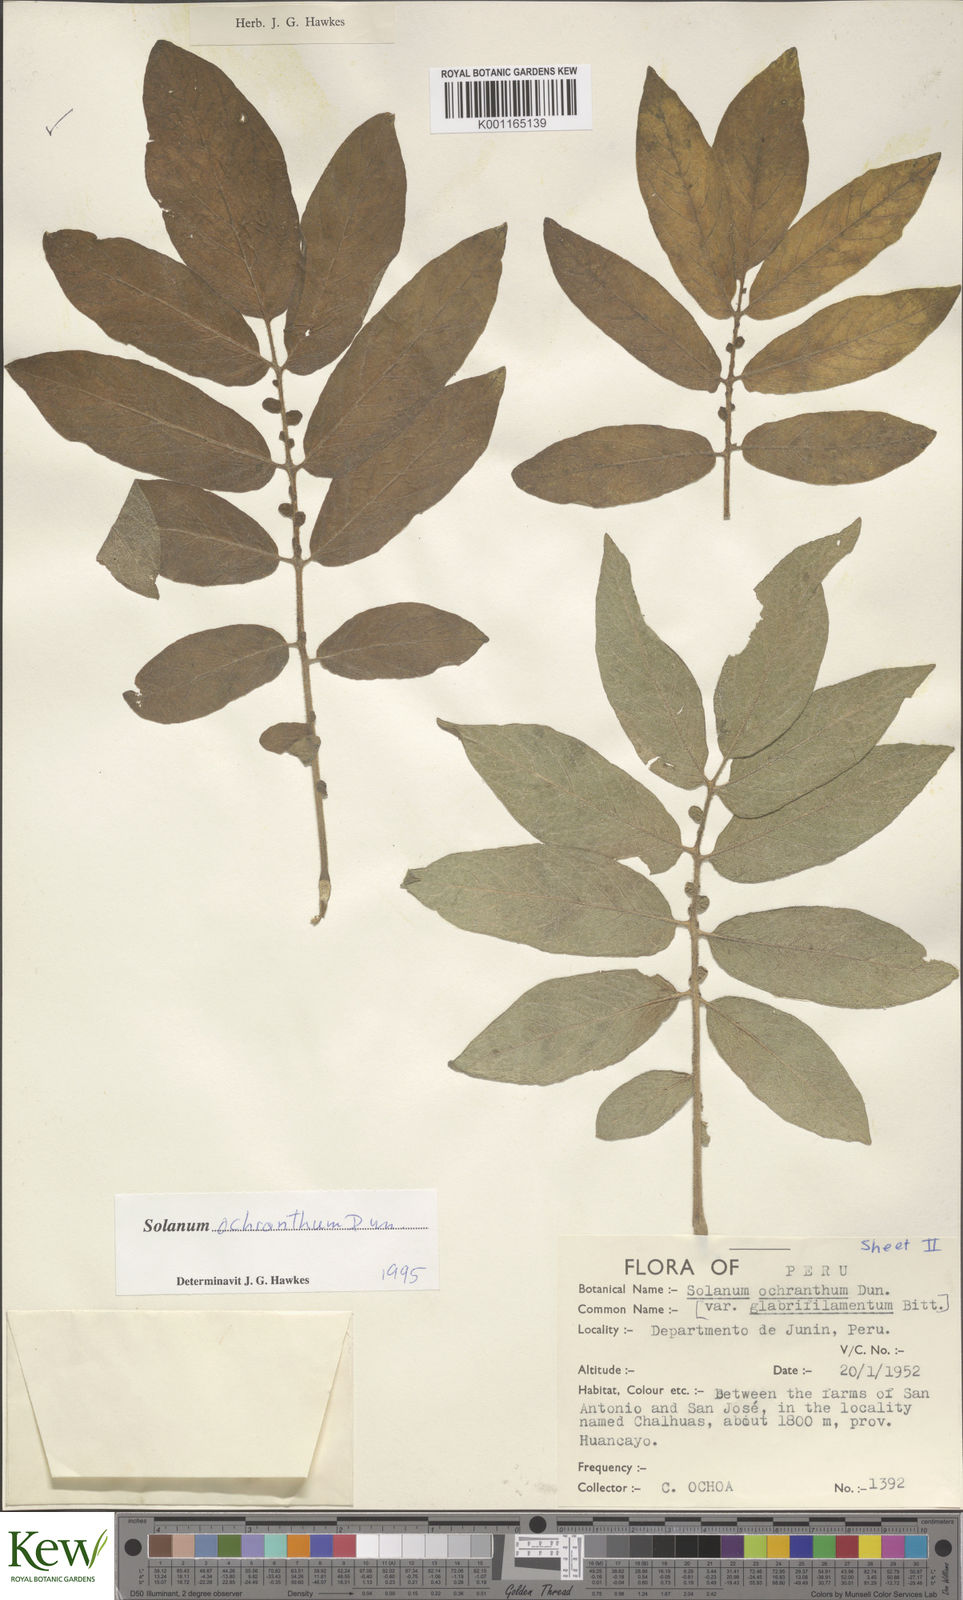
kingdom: Plantae
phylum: Tracheophyta
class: Magnoliopsida
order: Solanales
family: Solanaceae
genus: Solanum
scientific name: Solanum ochranthum
